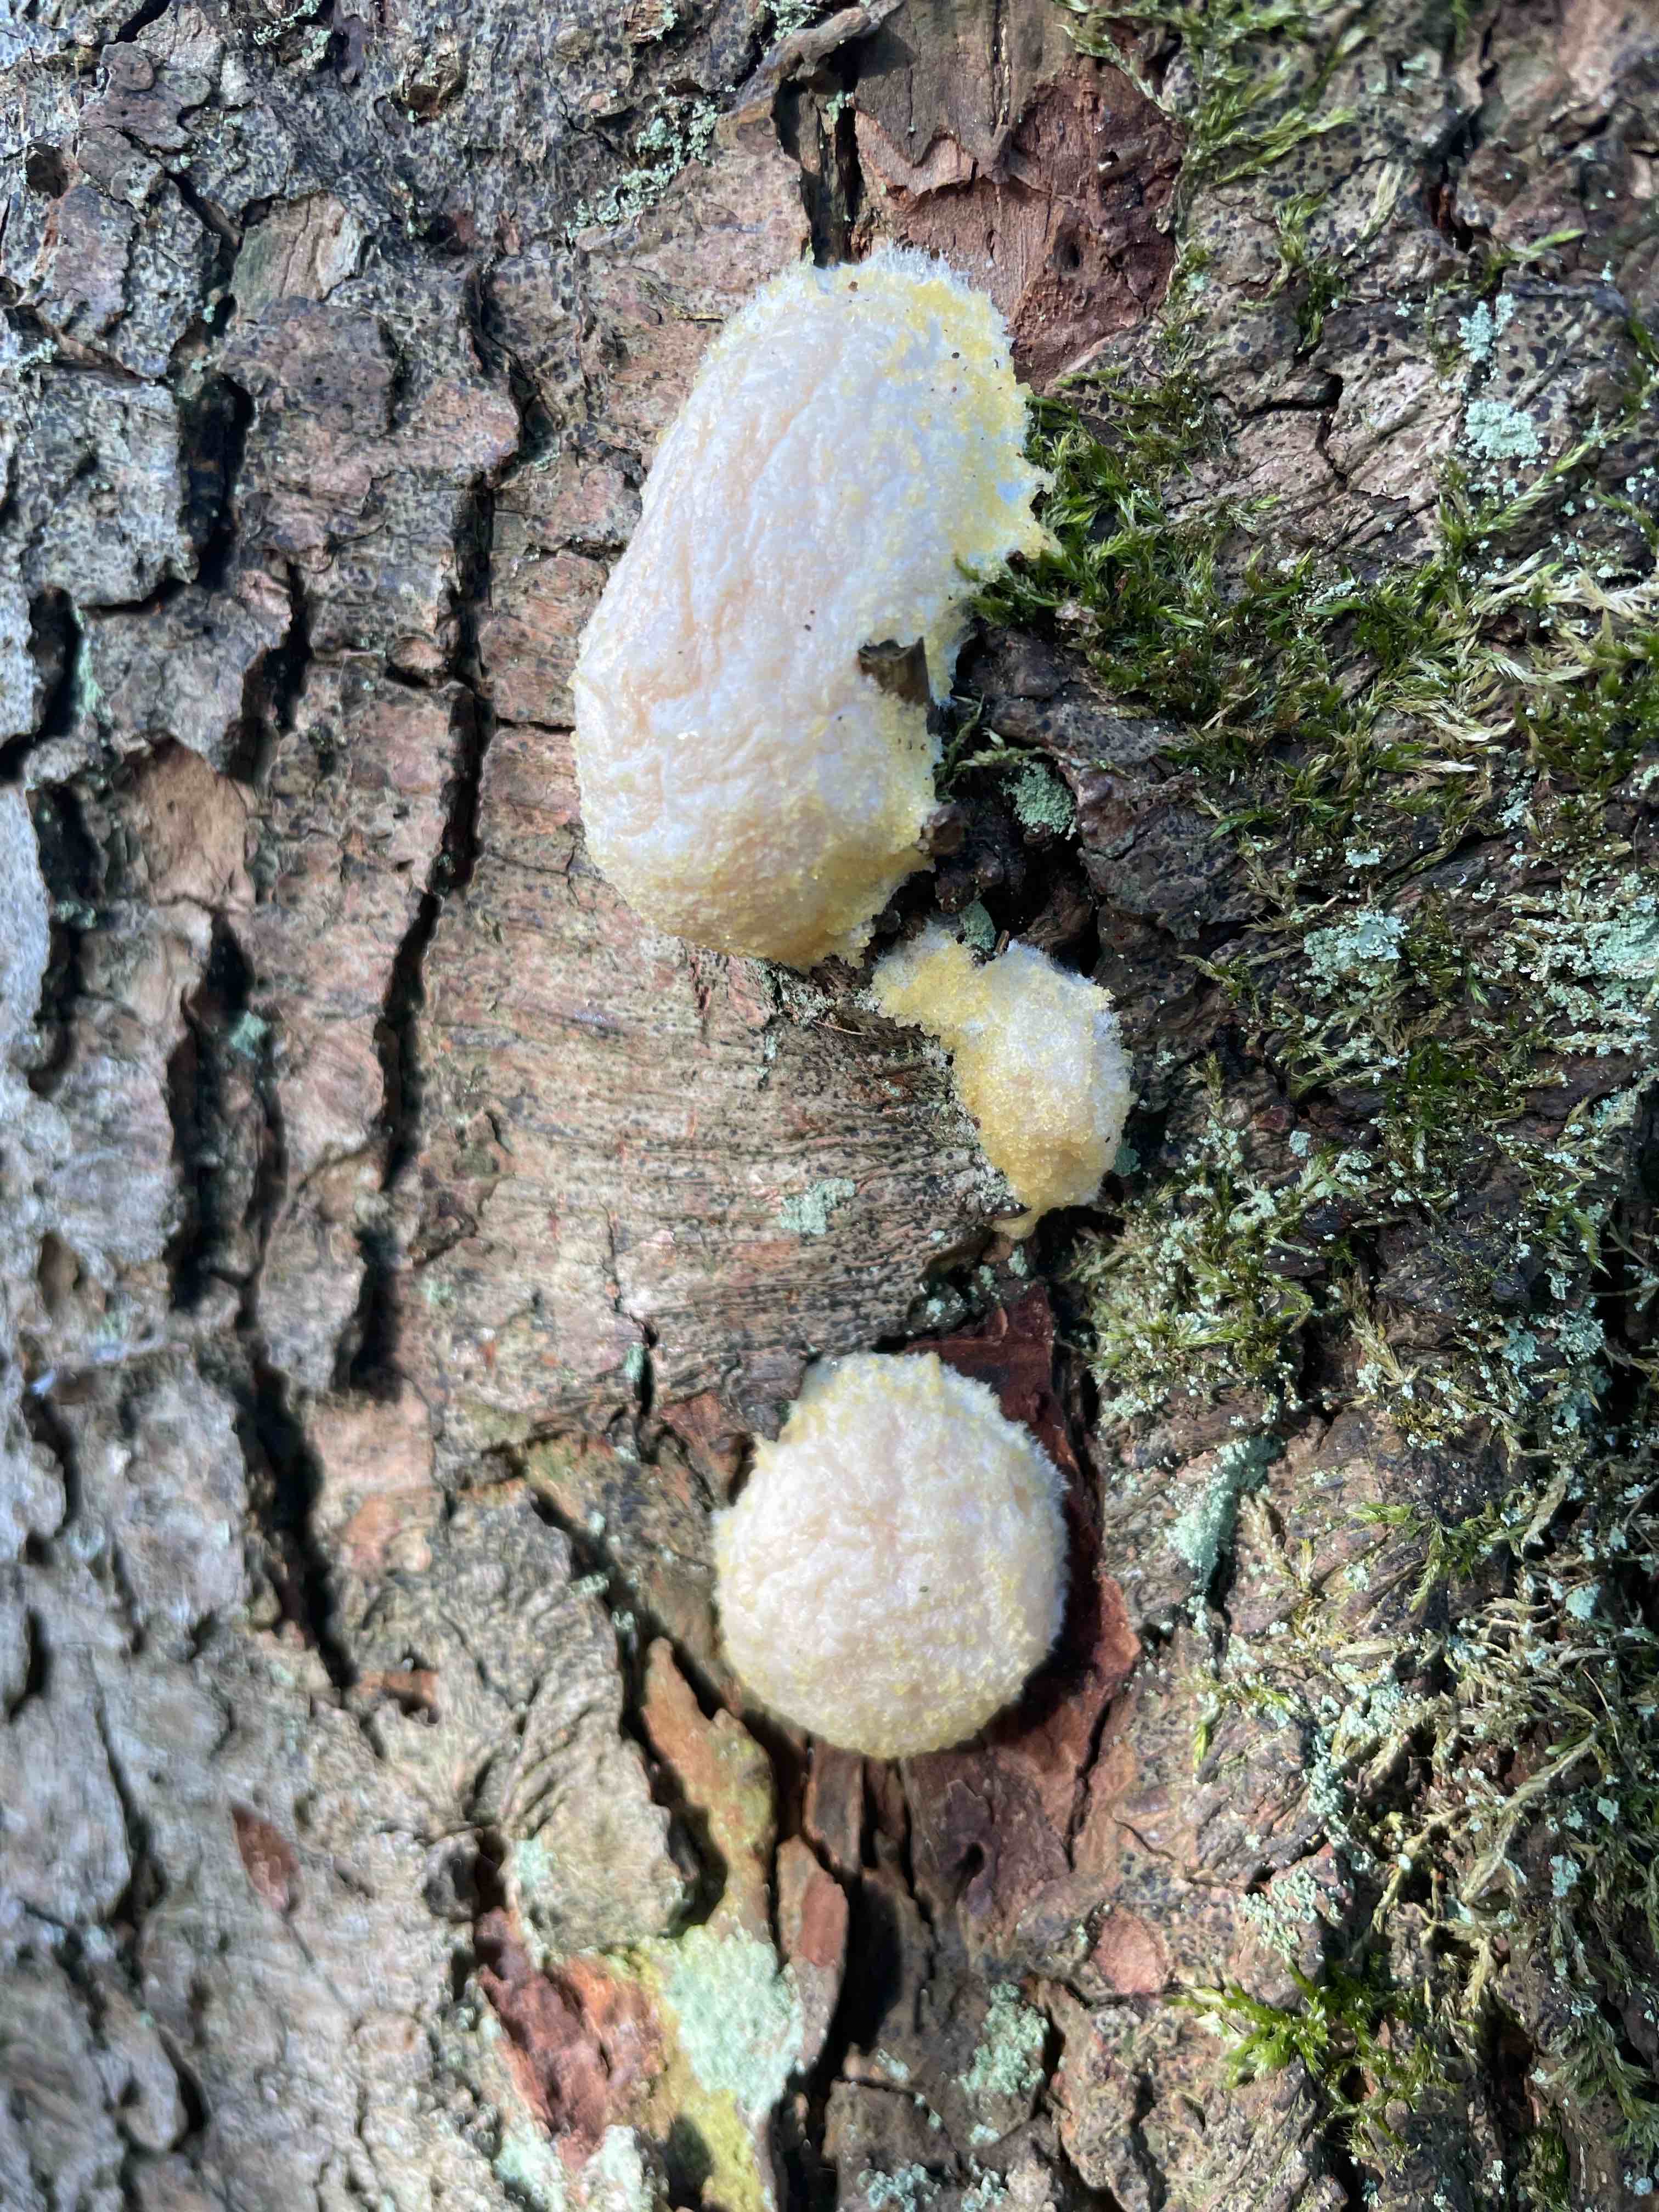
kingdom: Protozoa
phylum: Mycetozoa
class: Myxomycetes
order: Cribrariales
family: Tubiferaceae
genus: Reticularia
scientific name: Reticularia lycoperdon
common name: skinnende støvpude
